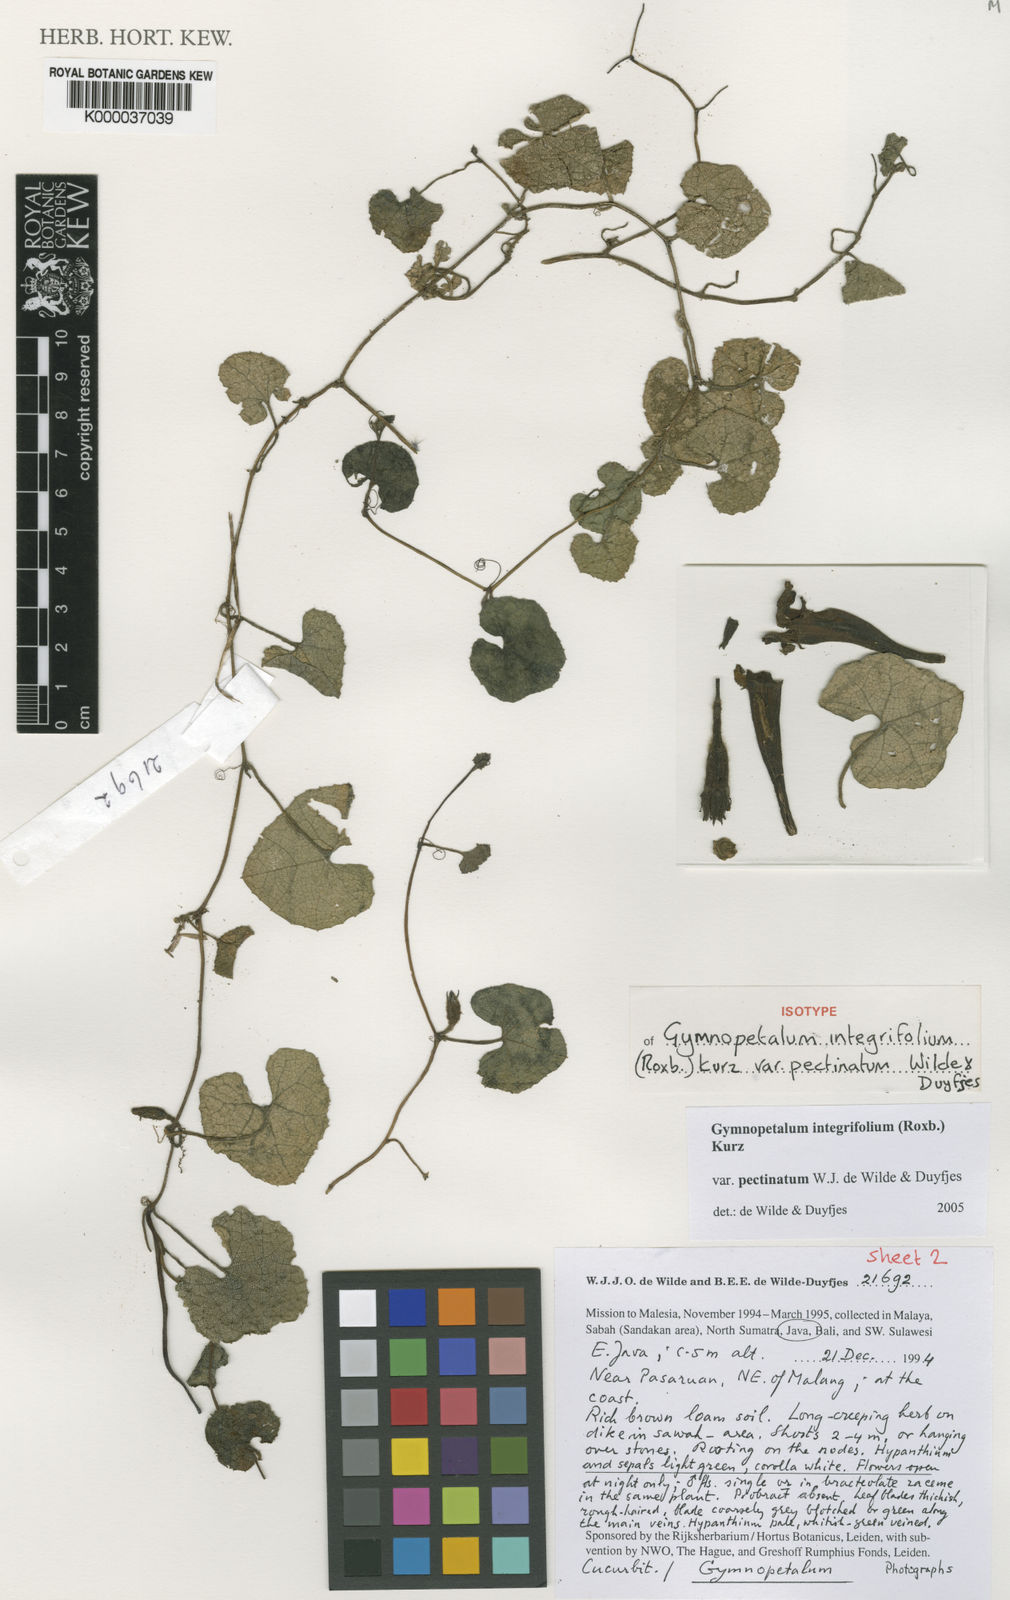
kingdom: Plantae
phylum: Tracheophyta
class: Magnoliopsida
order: Cucurbitales
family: Cucurbitaceae
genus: Trichosanthes
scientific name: Trichosanthes scabra
